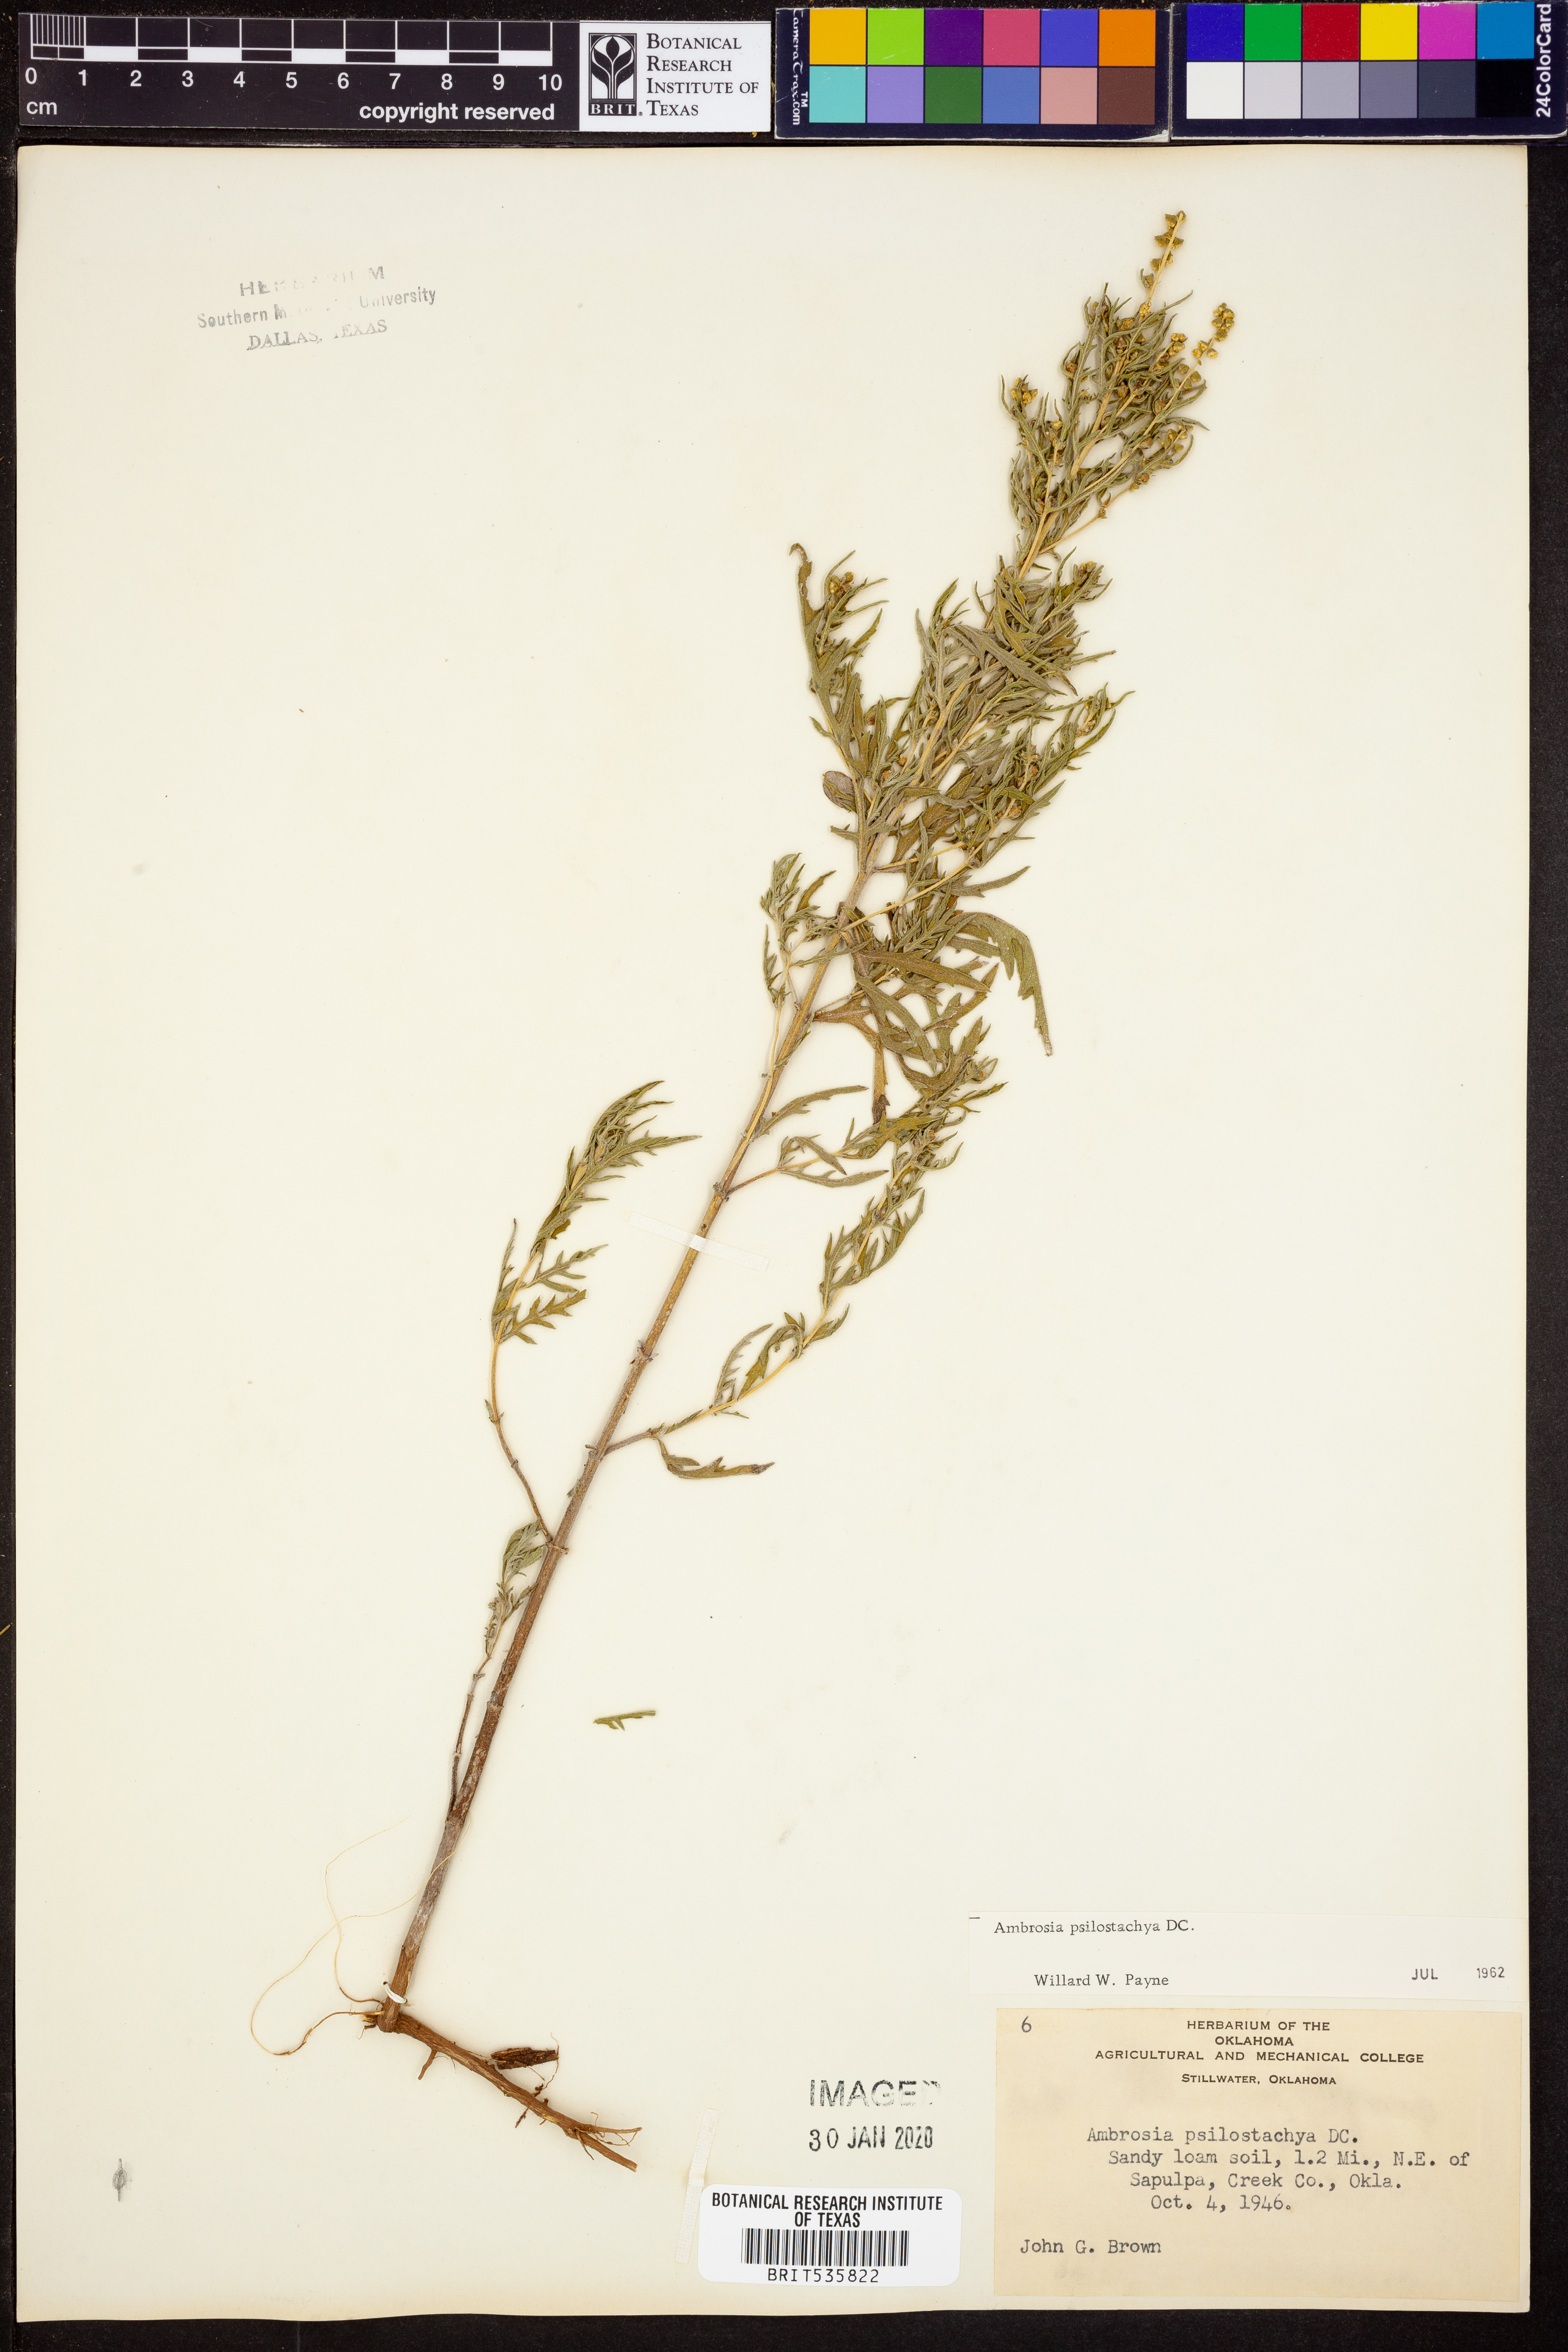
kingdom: Plantae
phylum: Tracheophyta
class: Magnoliopsida
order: Asterales
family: Asteraceae
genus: Ambrosia
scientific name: Ambrosia psilostachya
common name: Perennial ragweed
